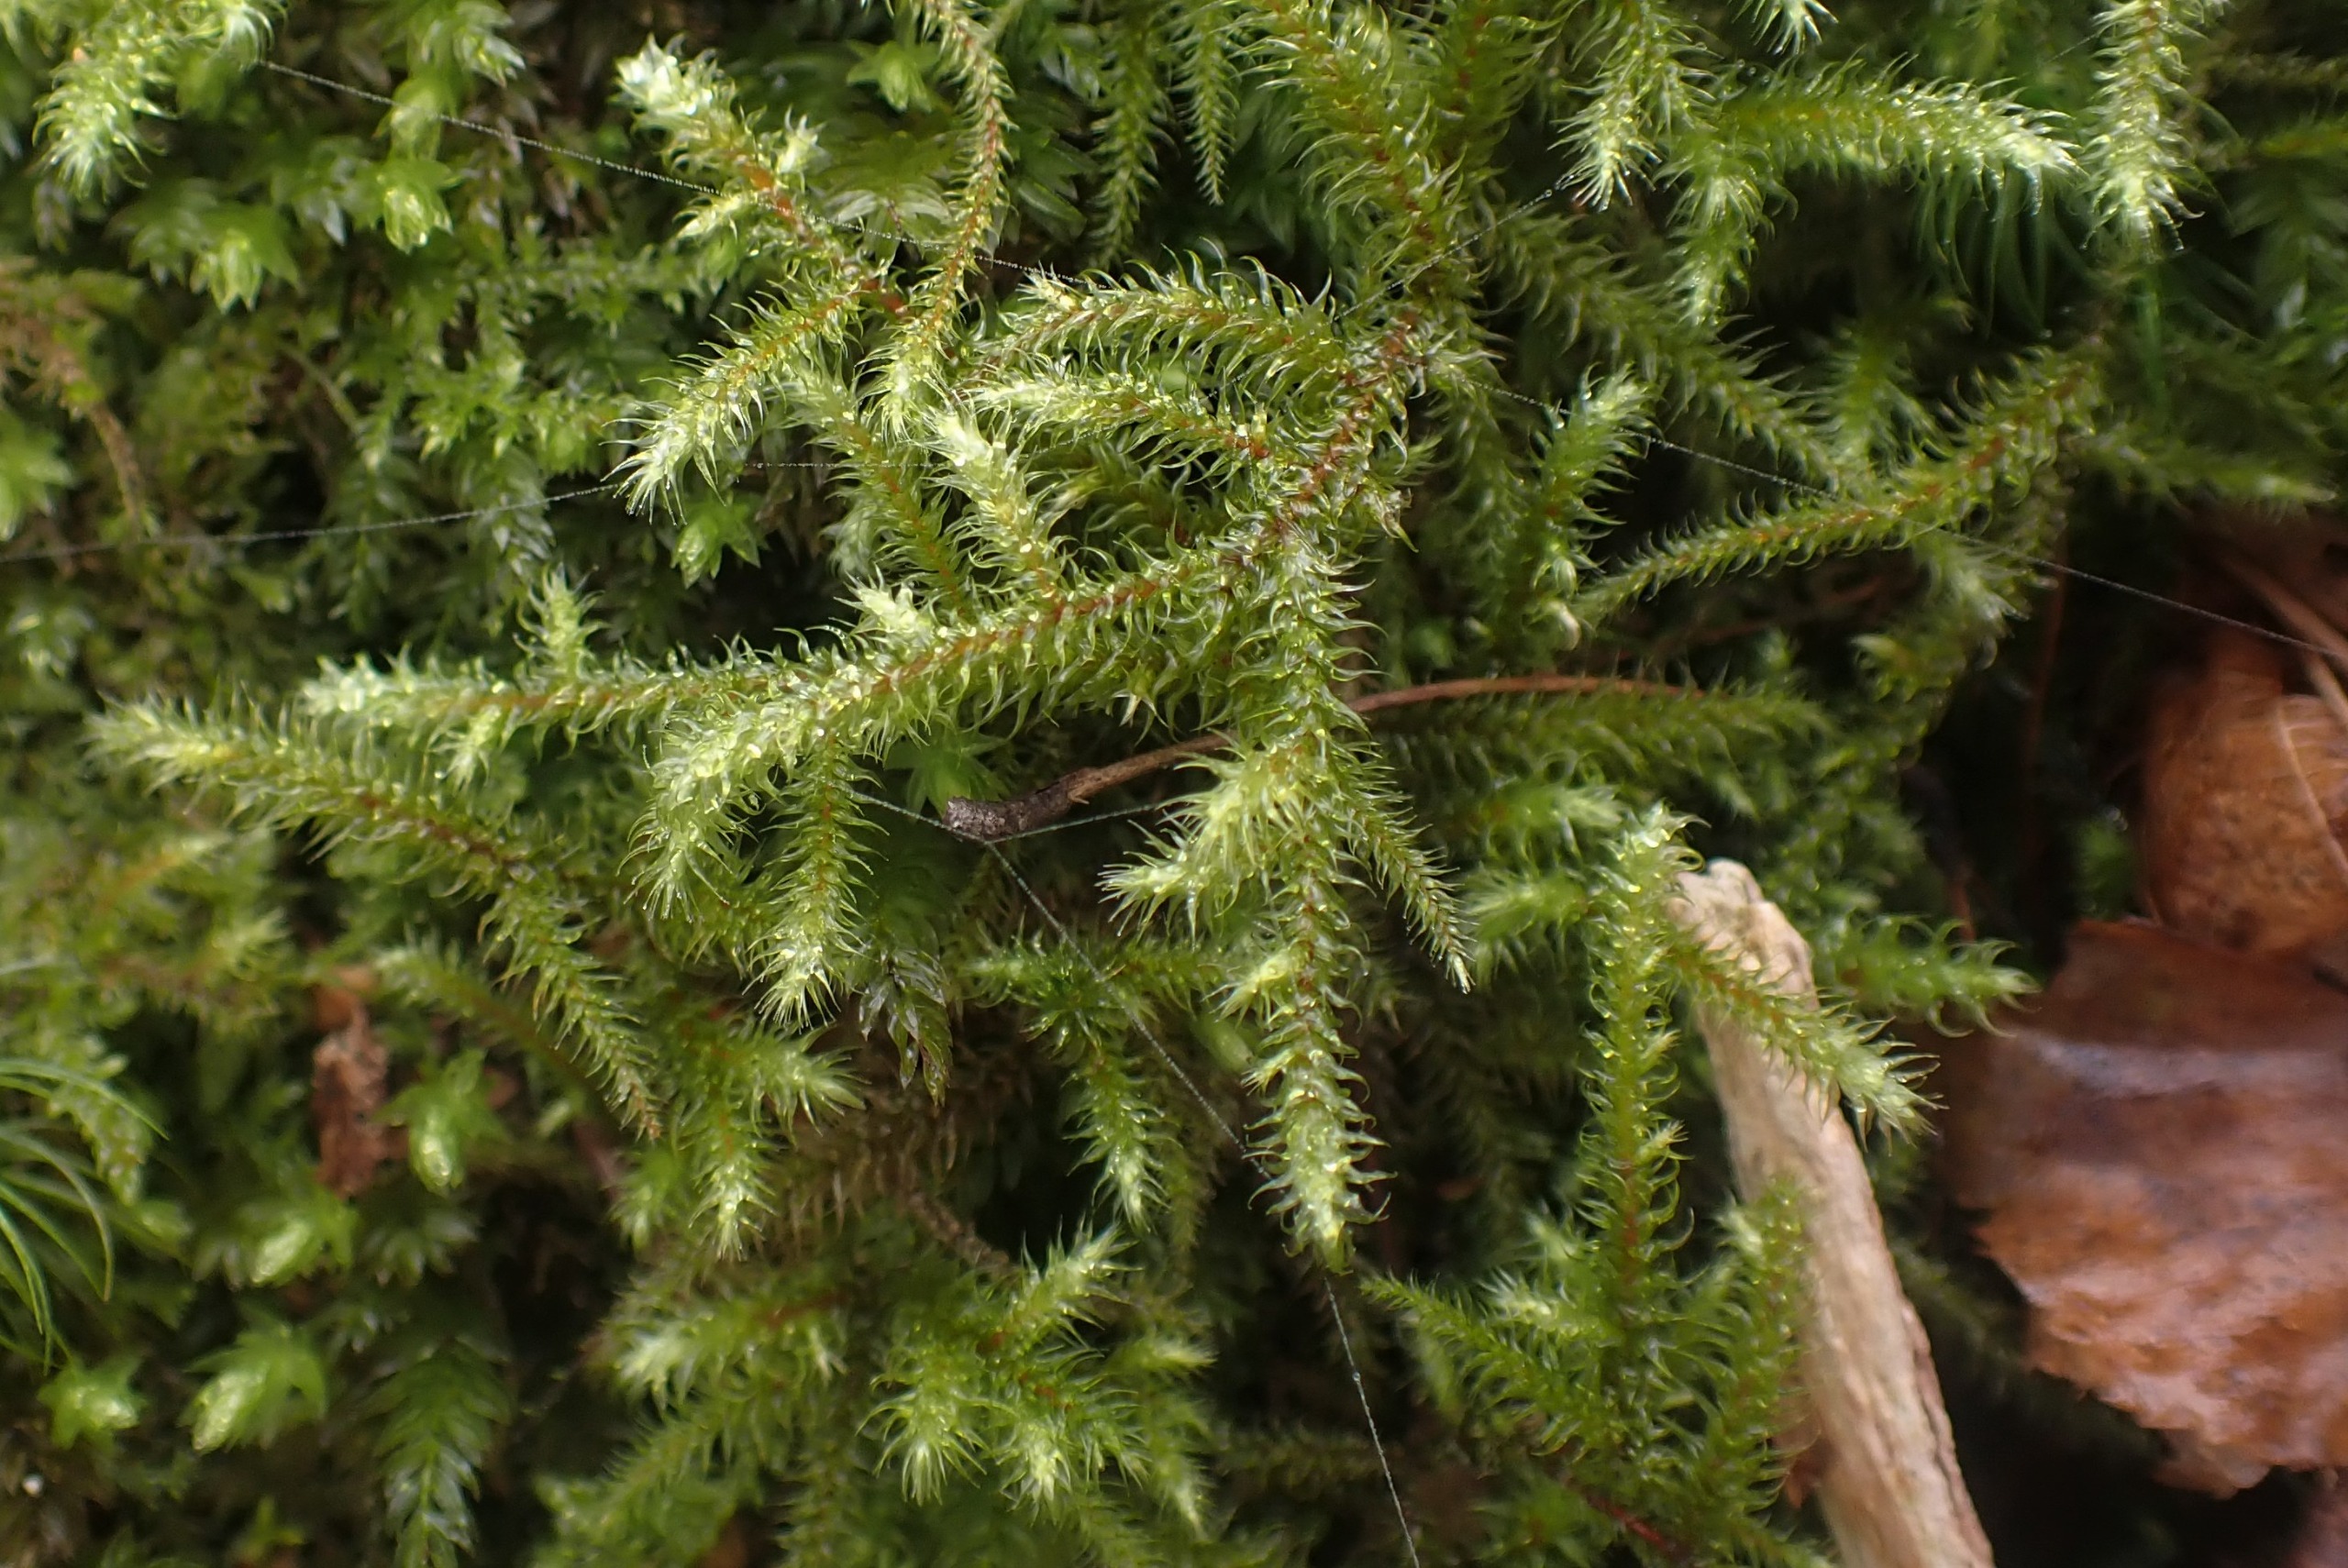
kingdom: Plantae
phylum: Bryophyta
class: Bryopsida
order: Hypnales
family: Hylocomiaceae
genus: Rhytidiadelphus
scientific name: Rhytidiadelphus loreus
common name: Ulvefod-kransemos
